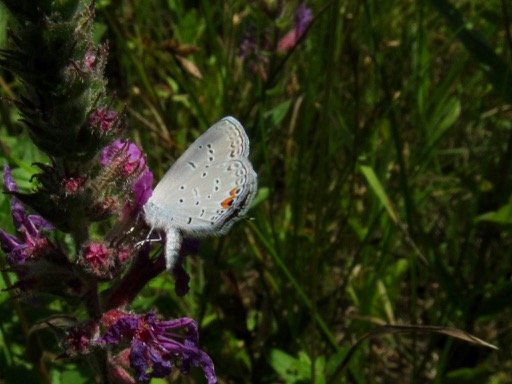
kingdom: Animalia
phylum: Arthropoda
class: Insecta
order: Lepidoptera
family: Lycaenidae
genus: Elkalyce
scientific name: Elkalyce comyntas
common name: Eastern Tailed-Blue
